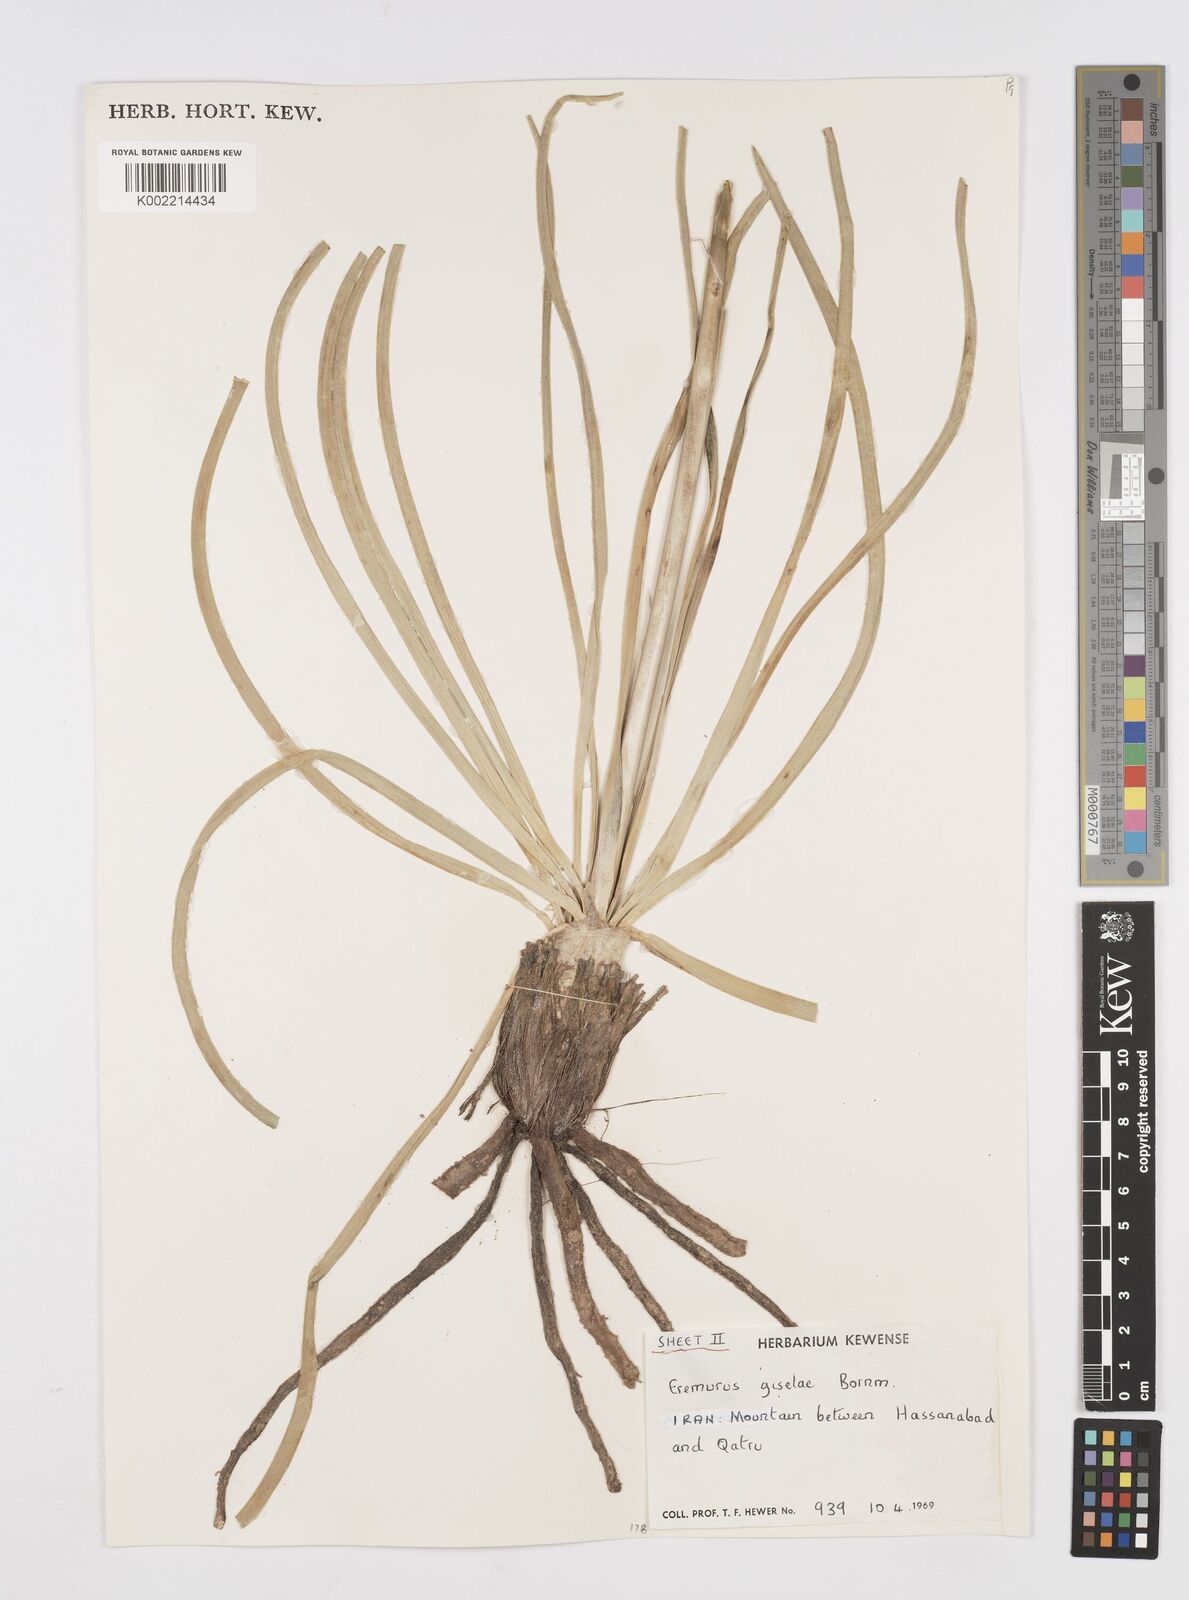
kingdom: Plantae
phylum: Tracheophyta
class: Liliopsida
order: Asparagales
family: Asphodelaceae
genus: Eremurus
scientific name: Eremurus kopet-daghensis
